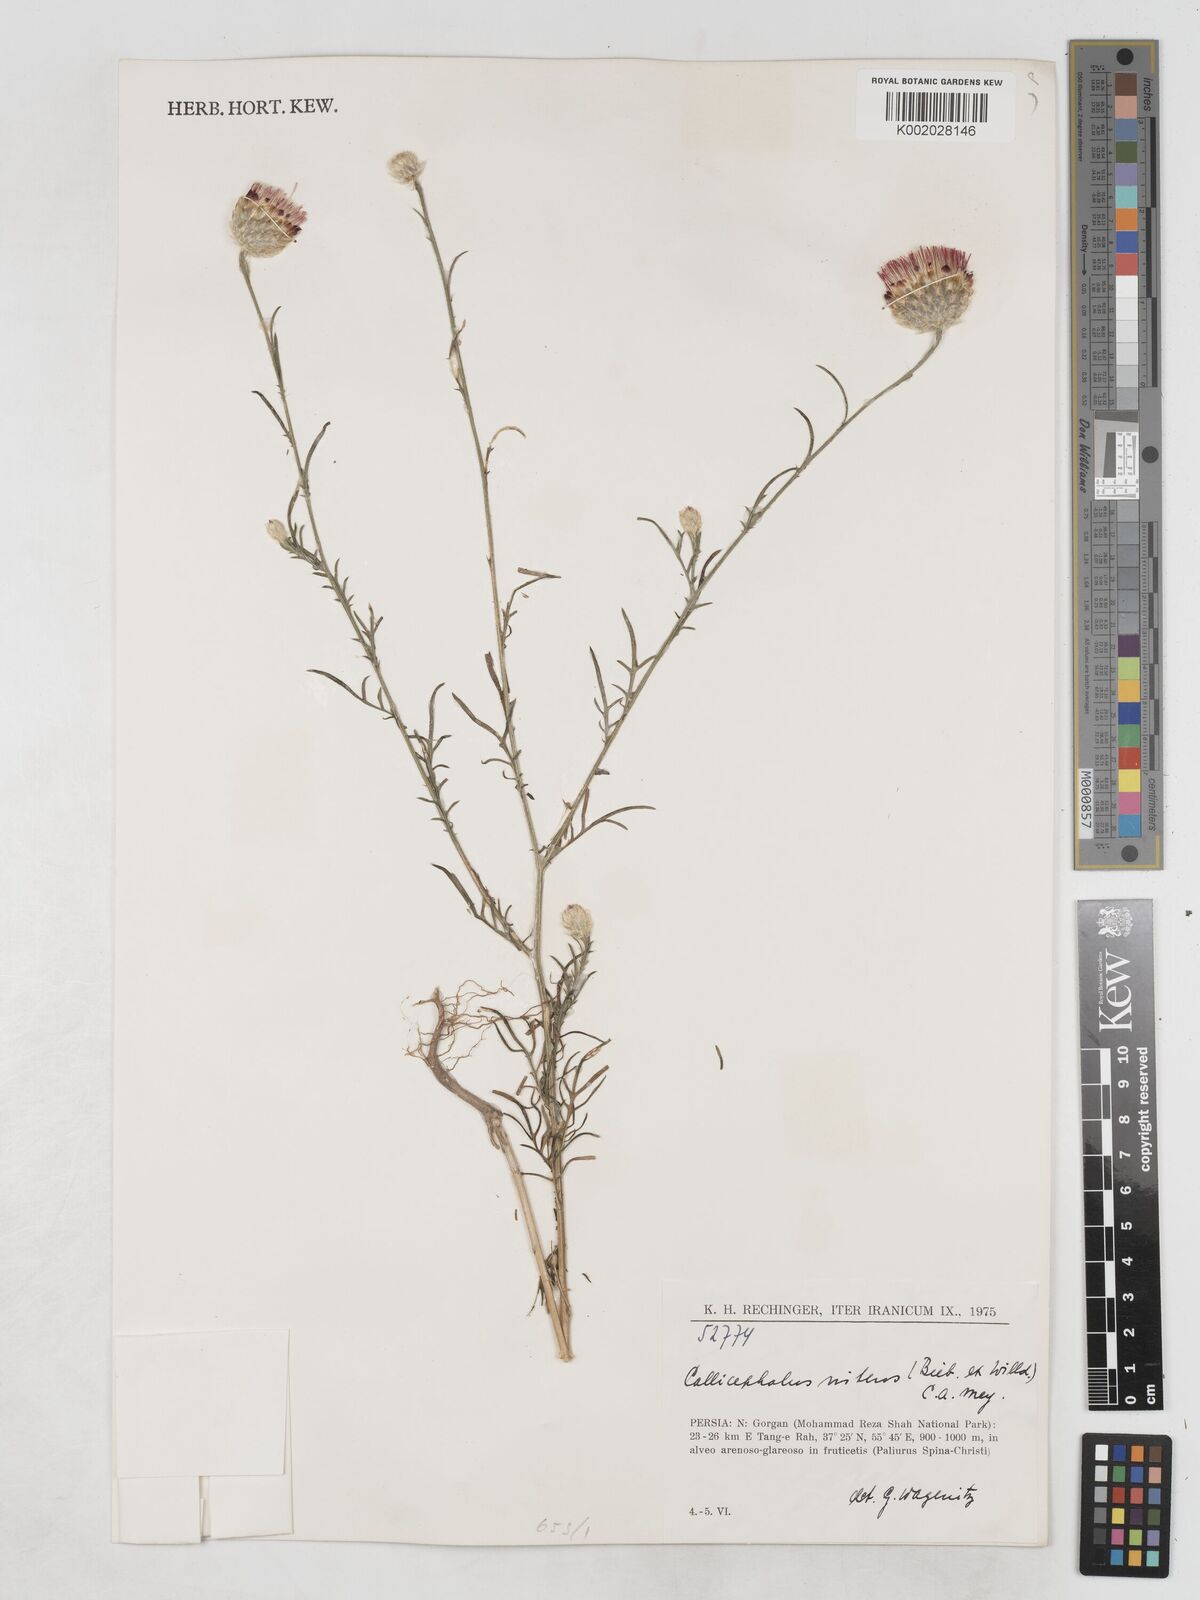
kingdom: Plantae
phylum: Tracheophyta
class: Magnoliopsida
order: Asterales
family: Asteraceae
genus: Callicephalus
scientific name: Callicephalus nitens
